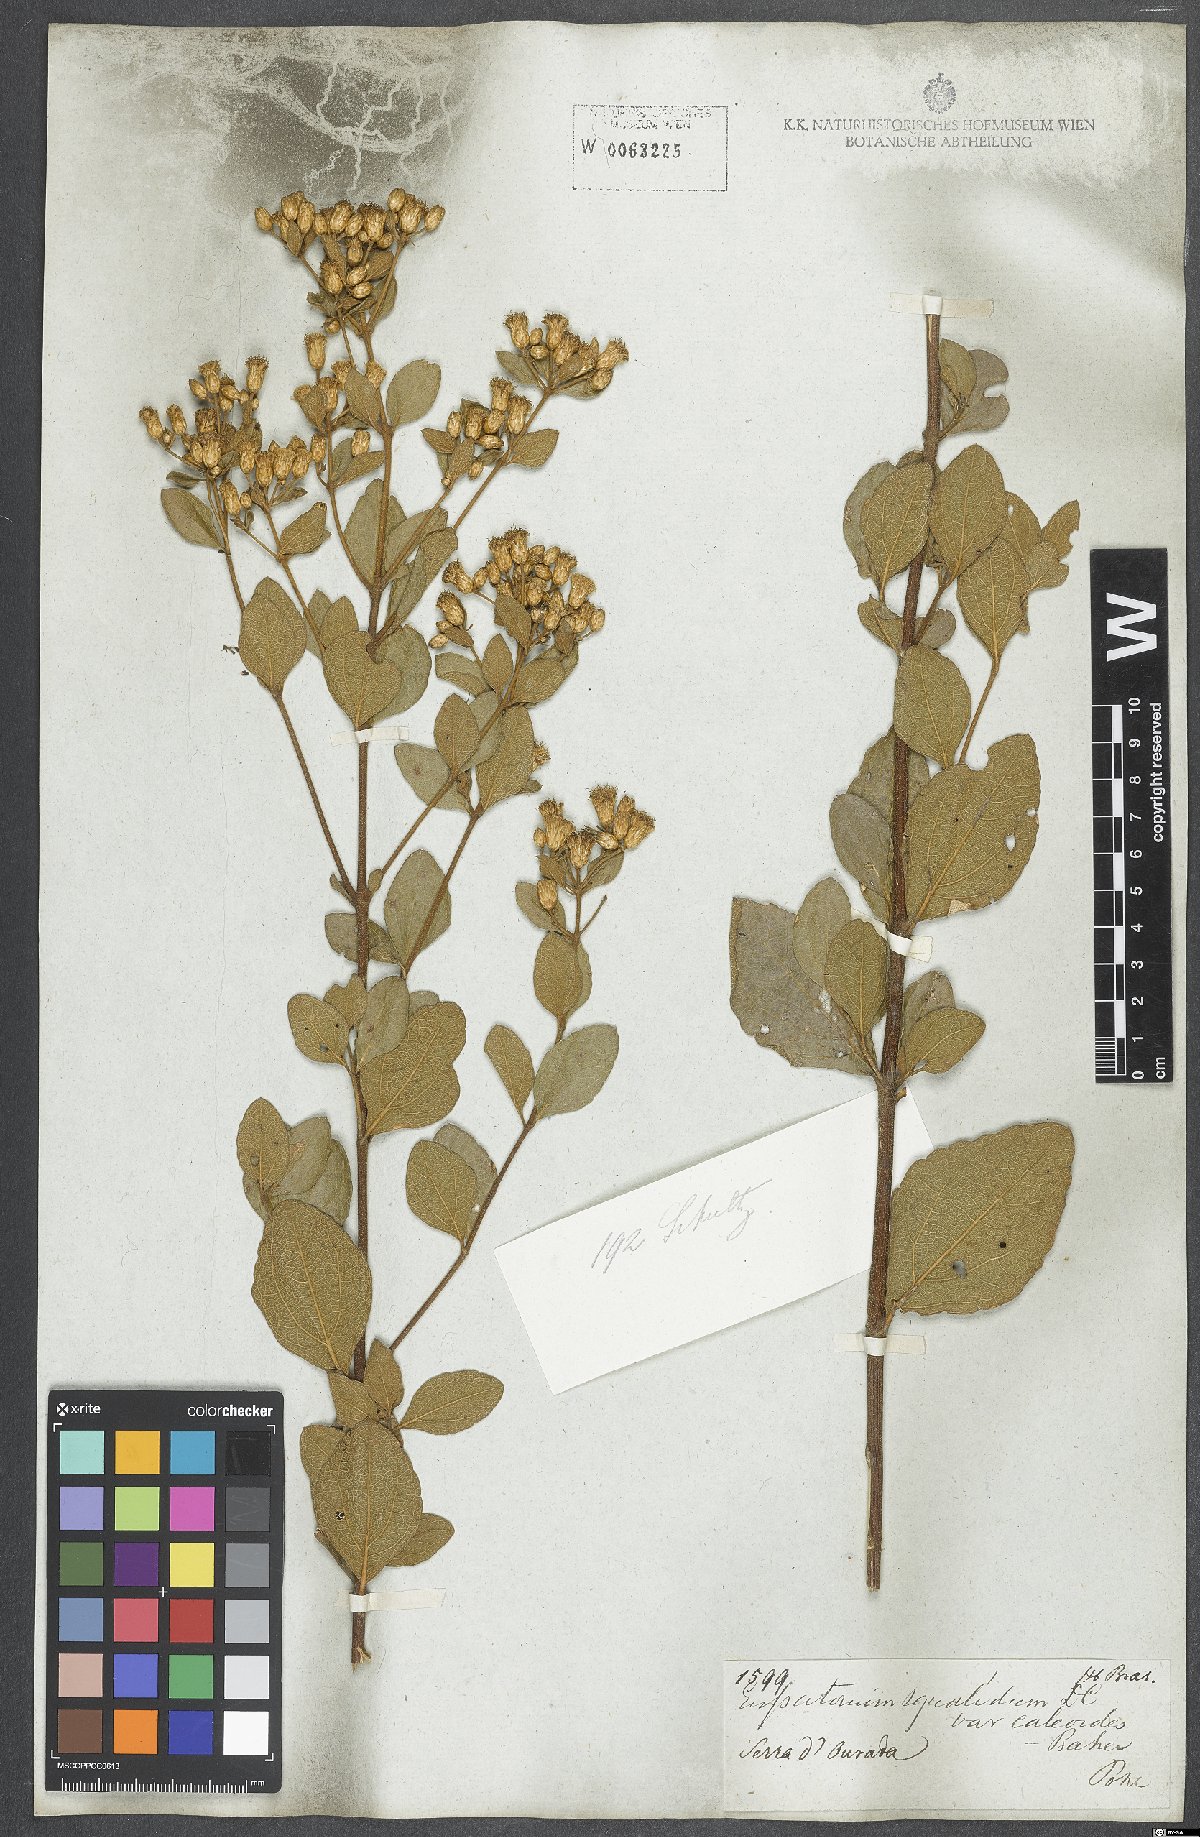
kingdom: Plantae
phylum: Tracheophyta
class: Magnoliopsida
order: Asterales
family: Asteraceae
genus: Chromolaena
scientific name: Chromolaena squalida
